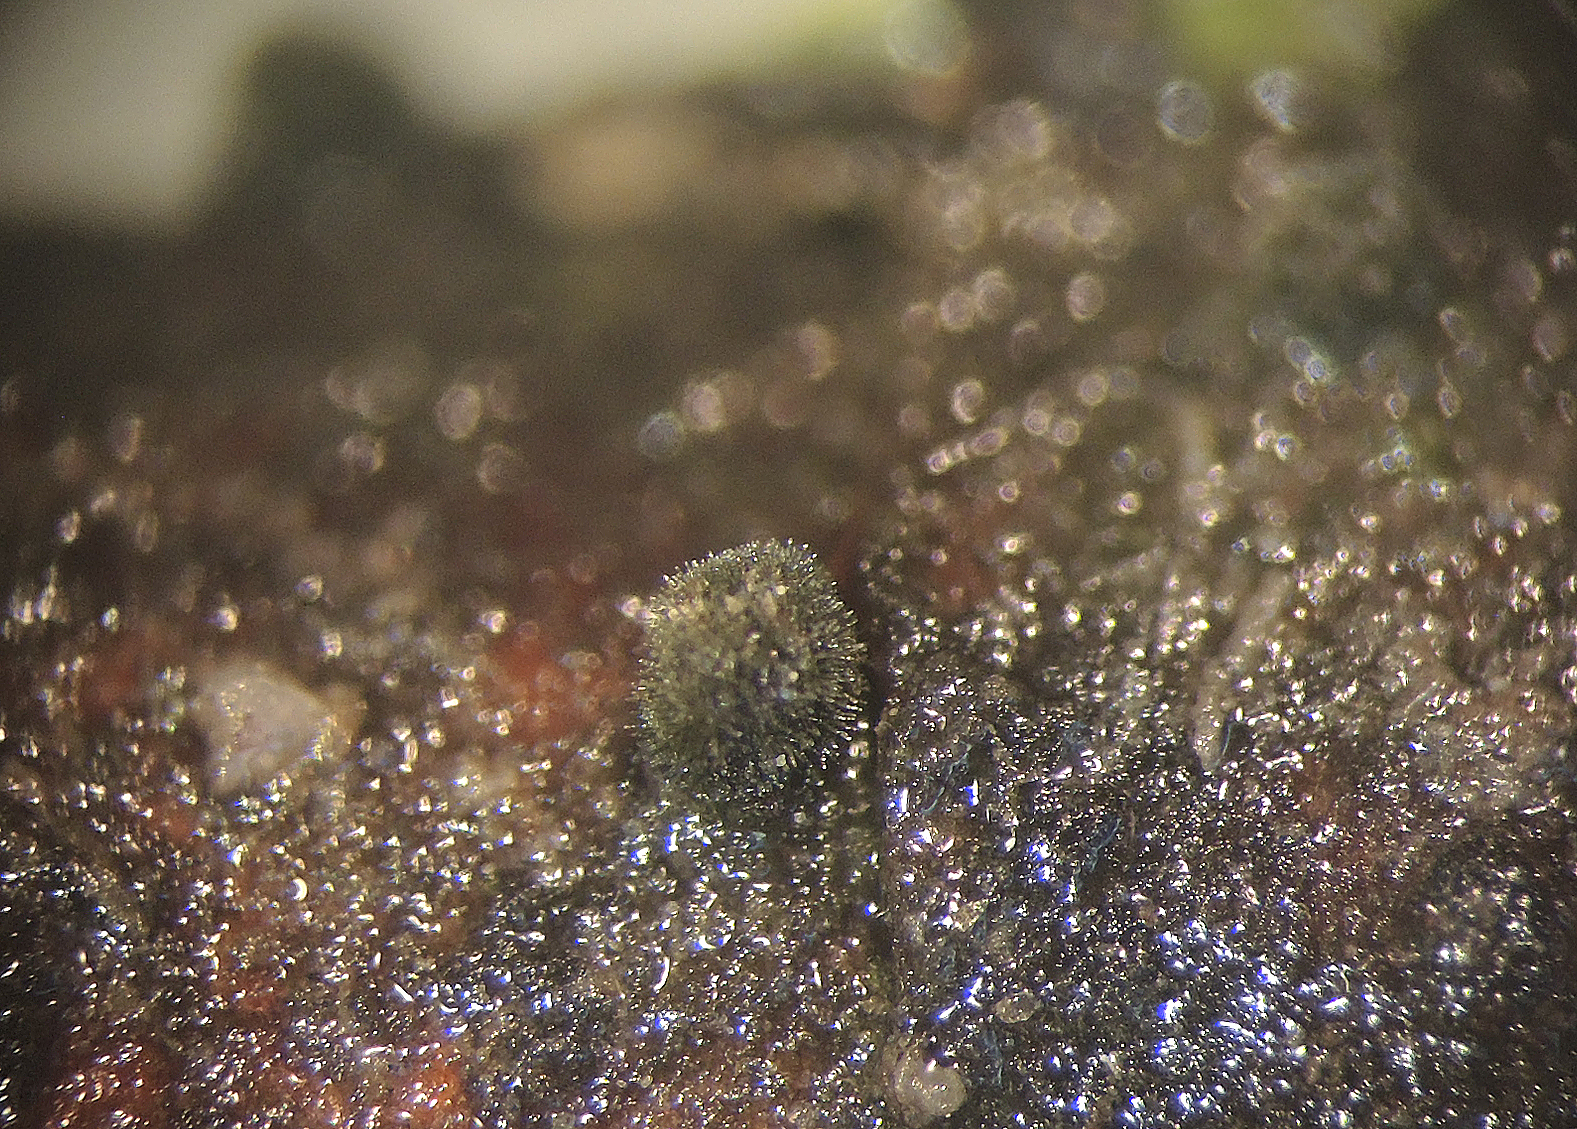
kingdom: Fungi
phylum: Ascomycota
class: Dothideomycetes
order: Pleosporales
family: Massarinaceae
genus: Helminthosporium
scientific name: Helminthosporium oligosporum
